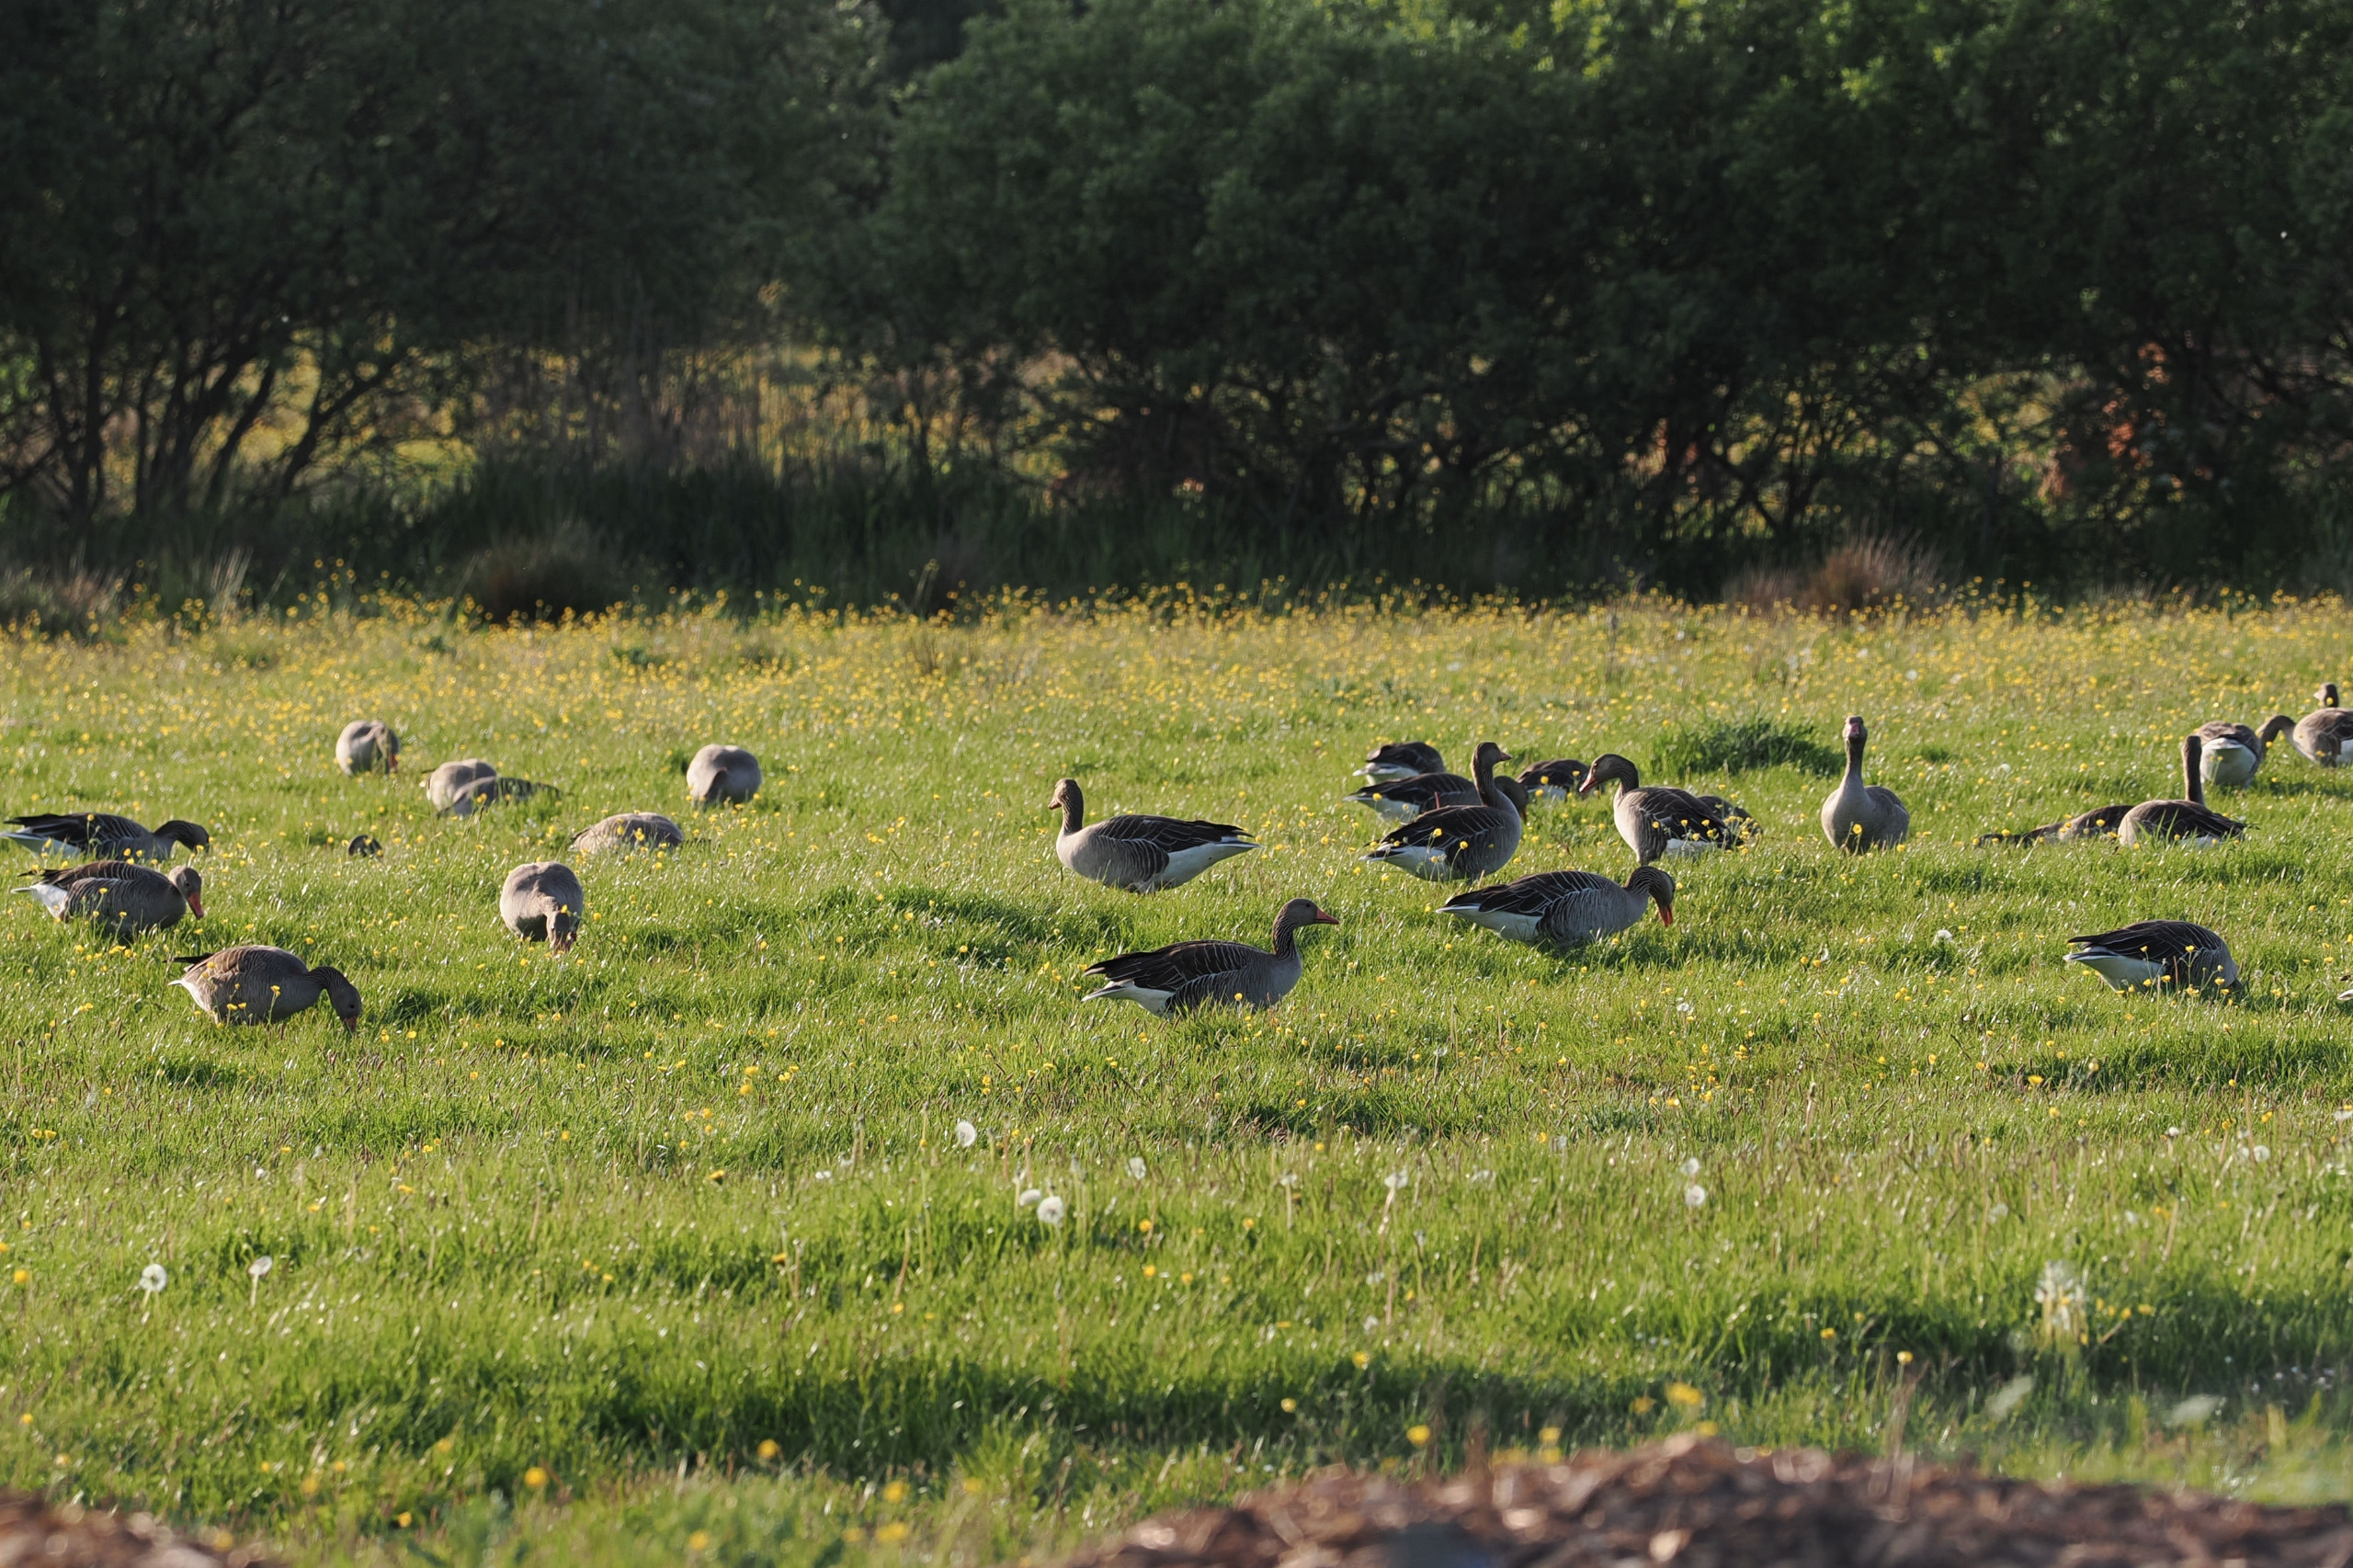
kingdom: Animalia
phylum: Chordata
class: Aves
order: Anseriformes
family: Anatidae
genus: Anser
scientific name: Anser anser
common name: Grågås
